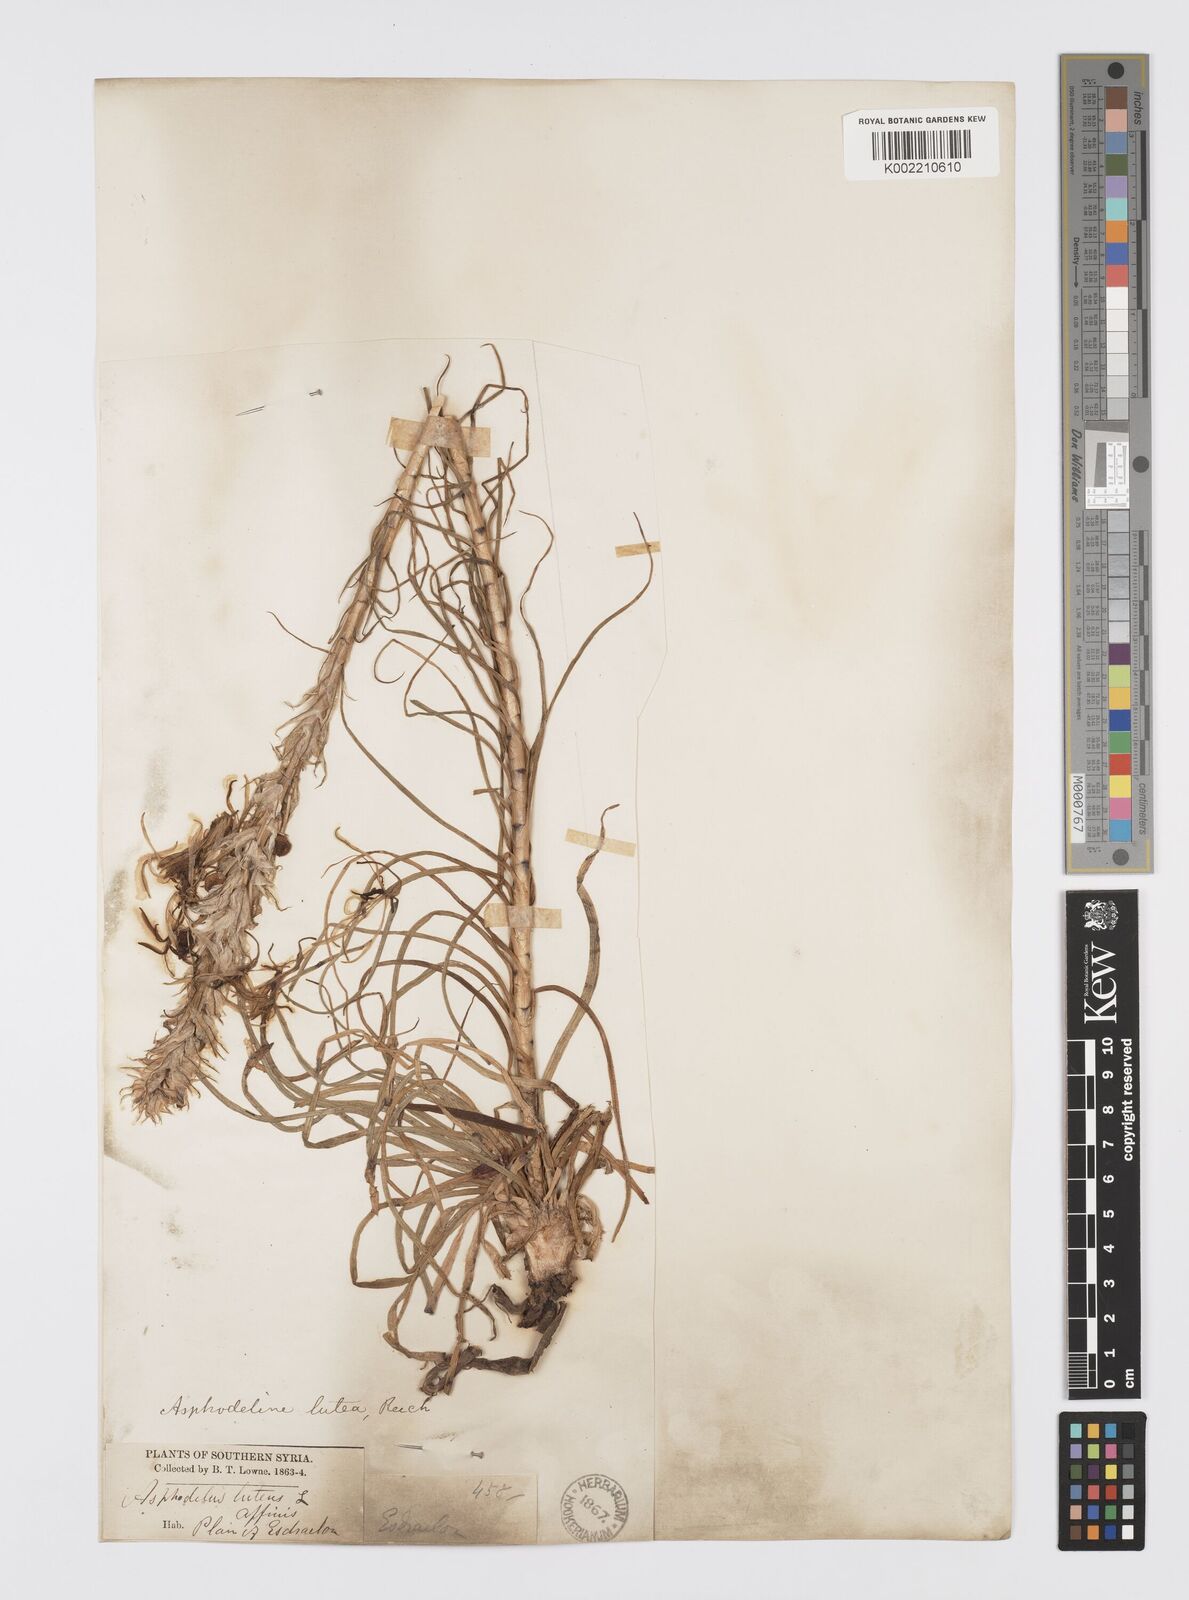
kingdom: Plantae
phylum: Tracheophyta
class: Liliopsida
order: Asparagales
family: Asphodelaceae
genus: Asphodeline
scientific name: Asphodeline lutea
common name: Yellow asphodel
